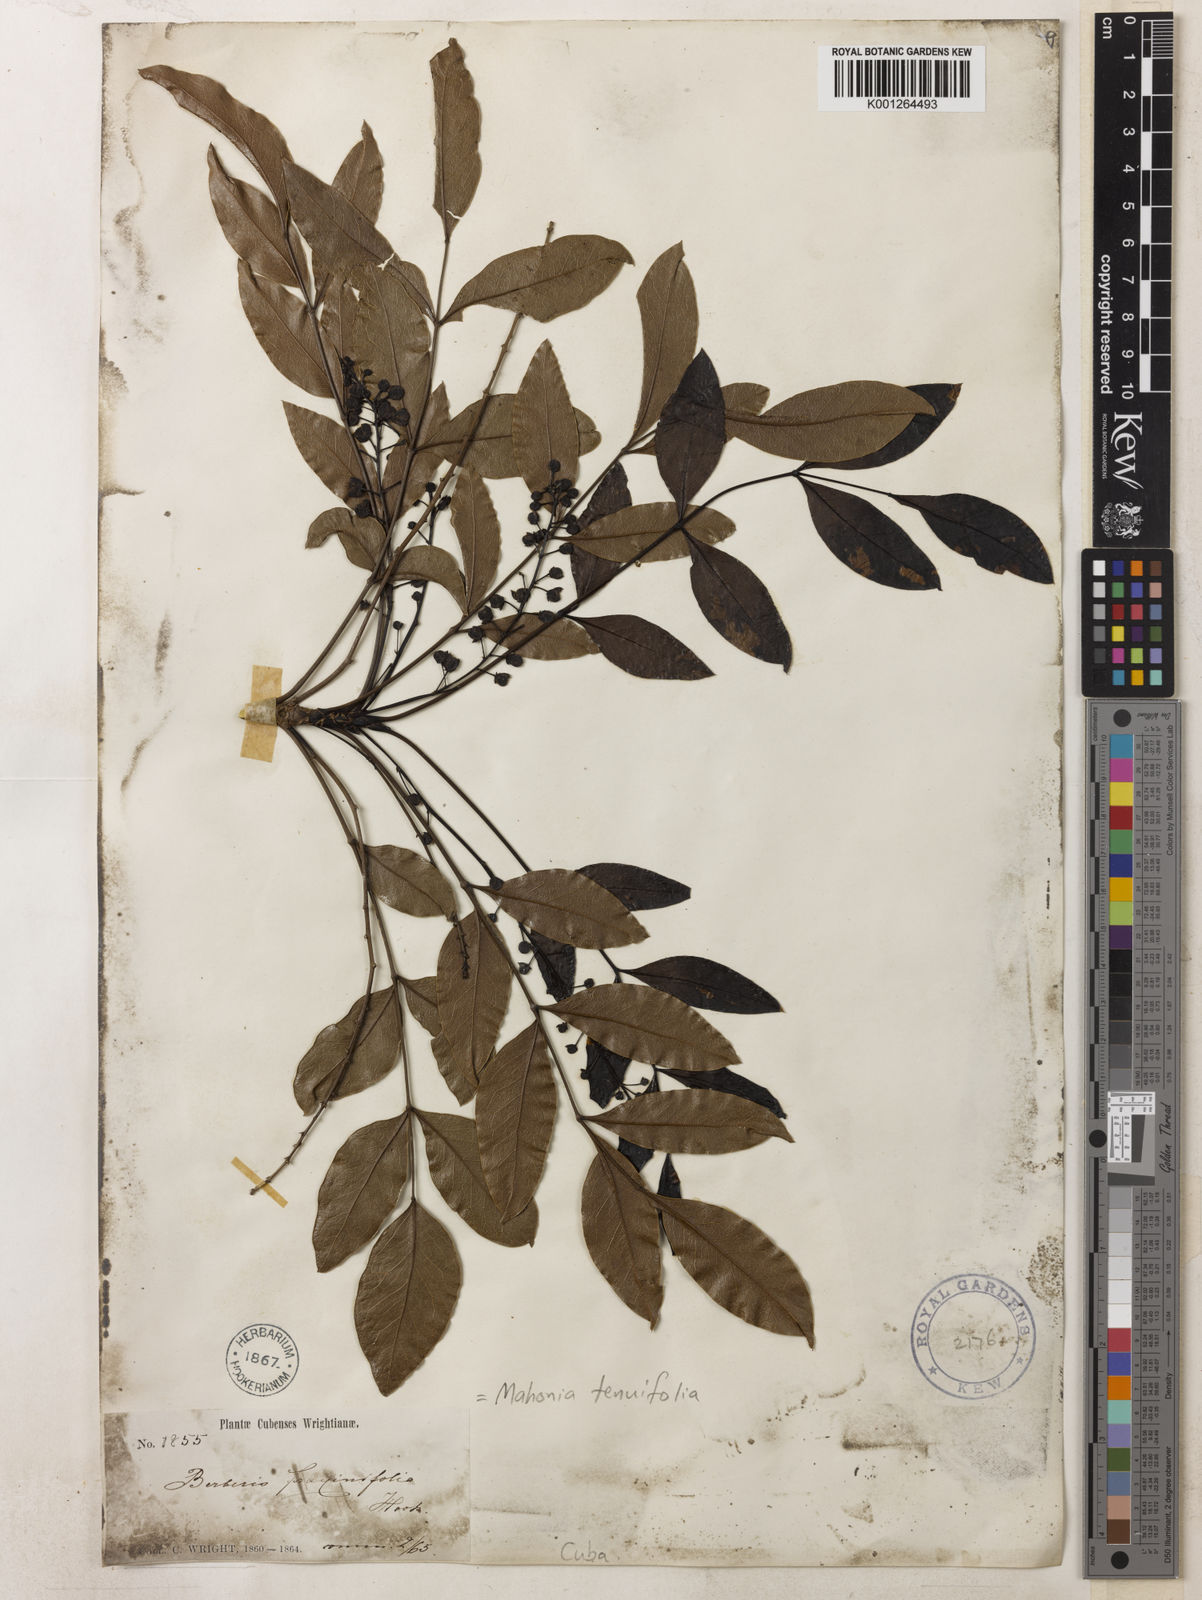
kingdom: Plantae
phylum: Tracheophyta
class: Magnoliopsida
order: Ranunculales
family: Berberidaceae
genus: Mahonia
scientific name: Mahonia
